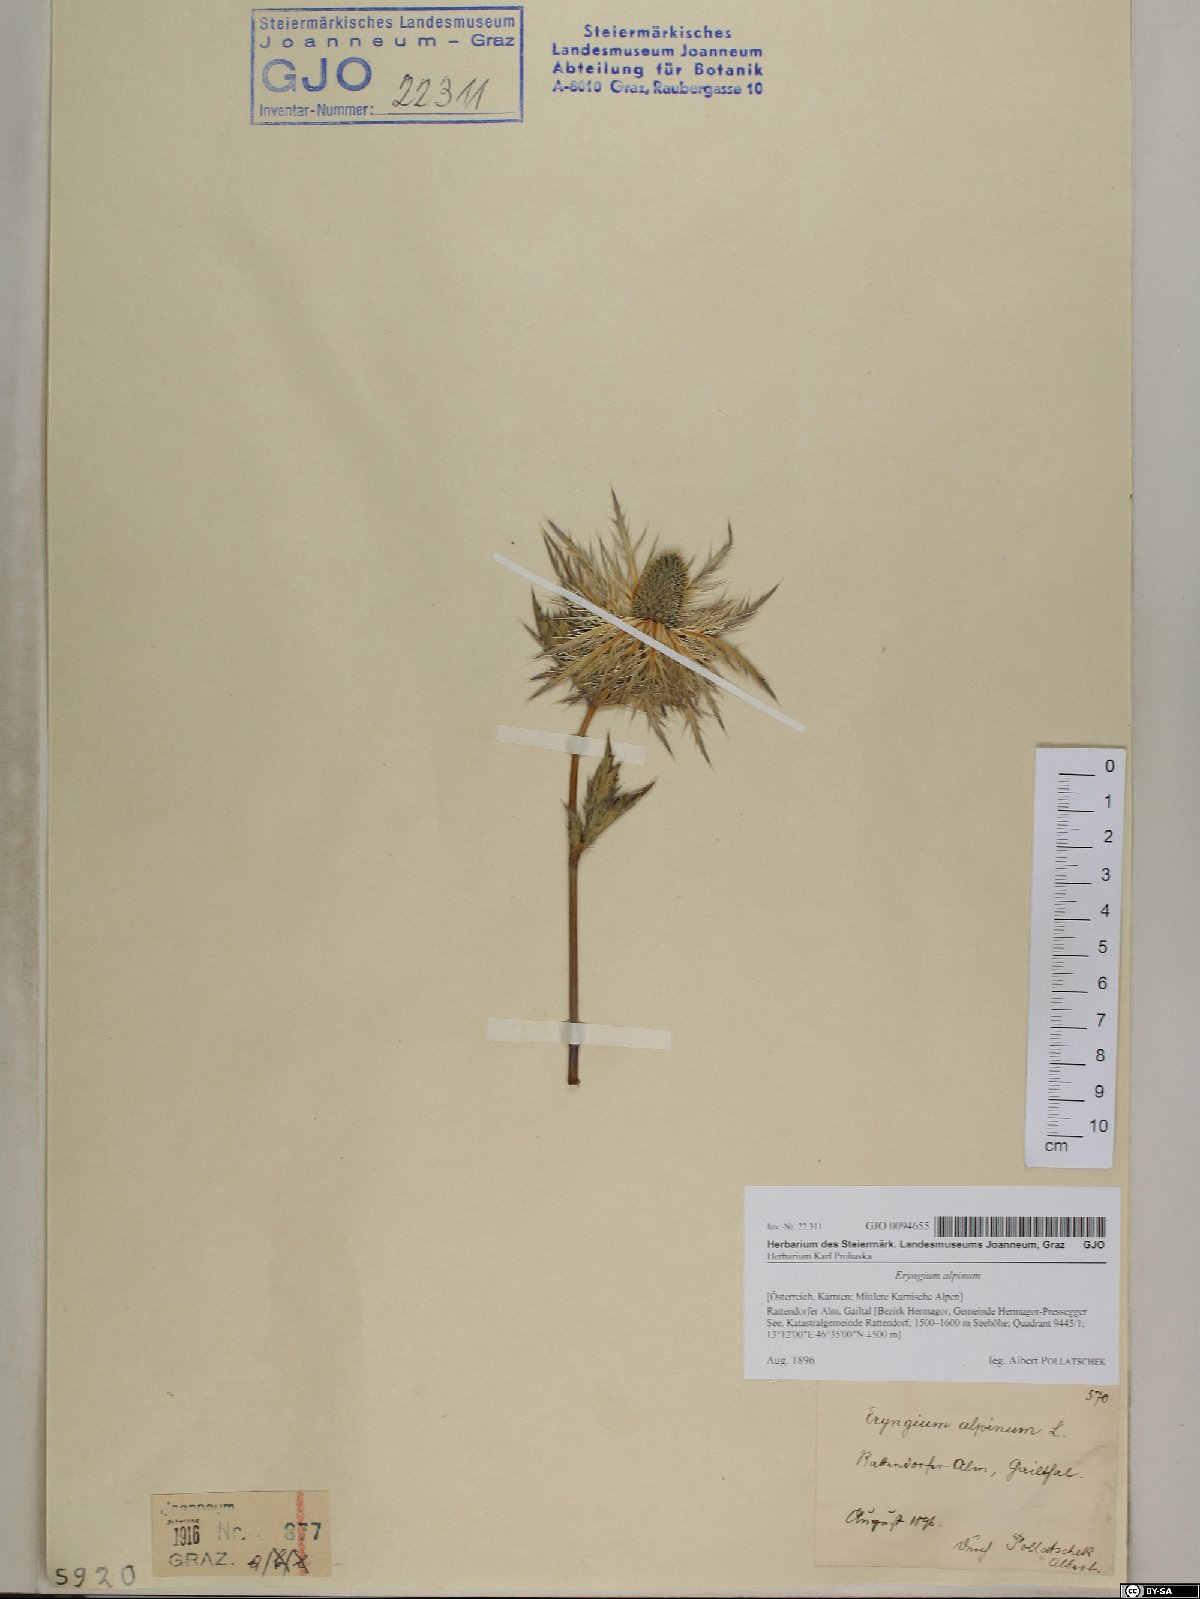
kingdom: Plantae
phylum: Tracheophyta
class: Magnoliopsida
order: Apiales
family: Apiaceae
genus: Eryngium
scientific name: Eryngium alpinum
